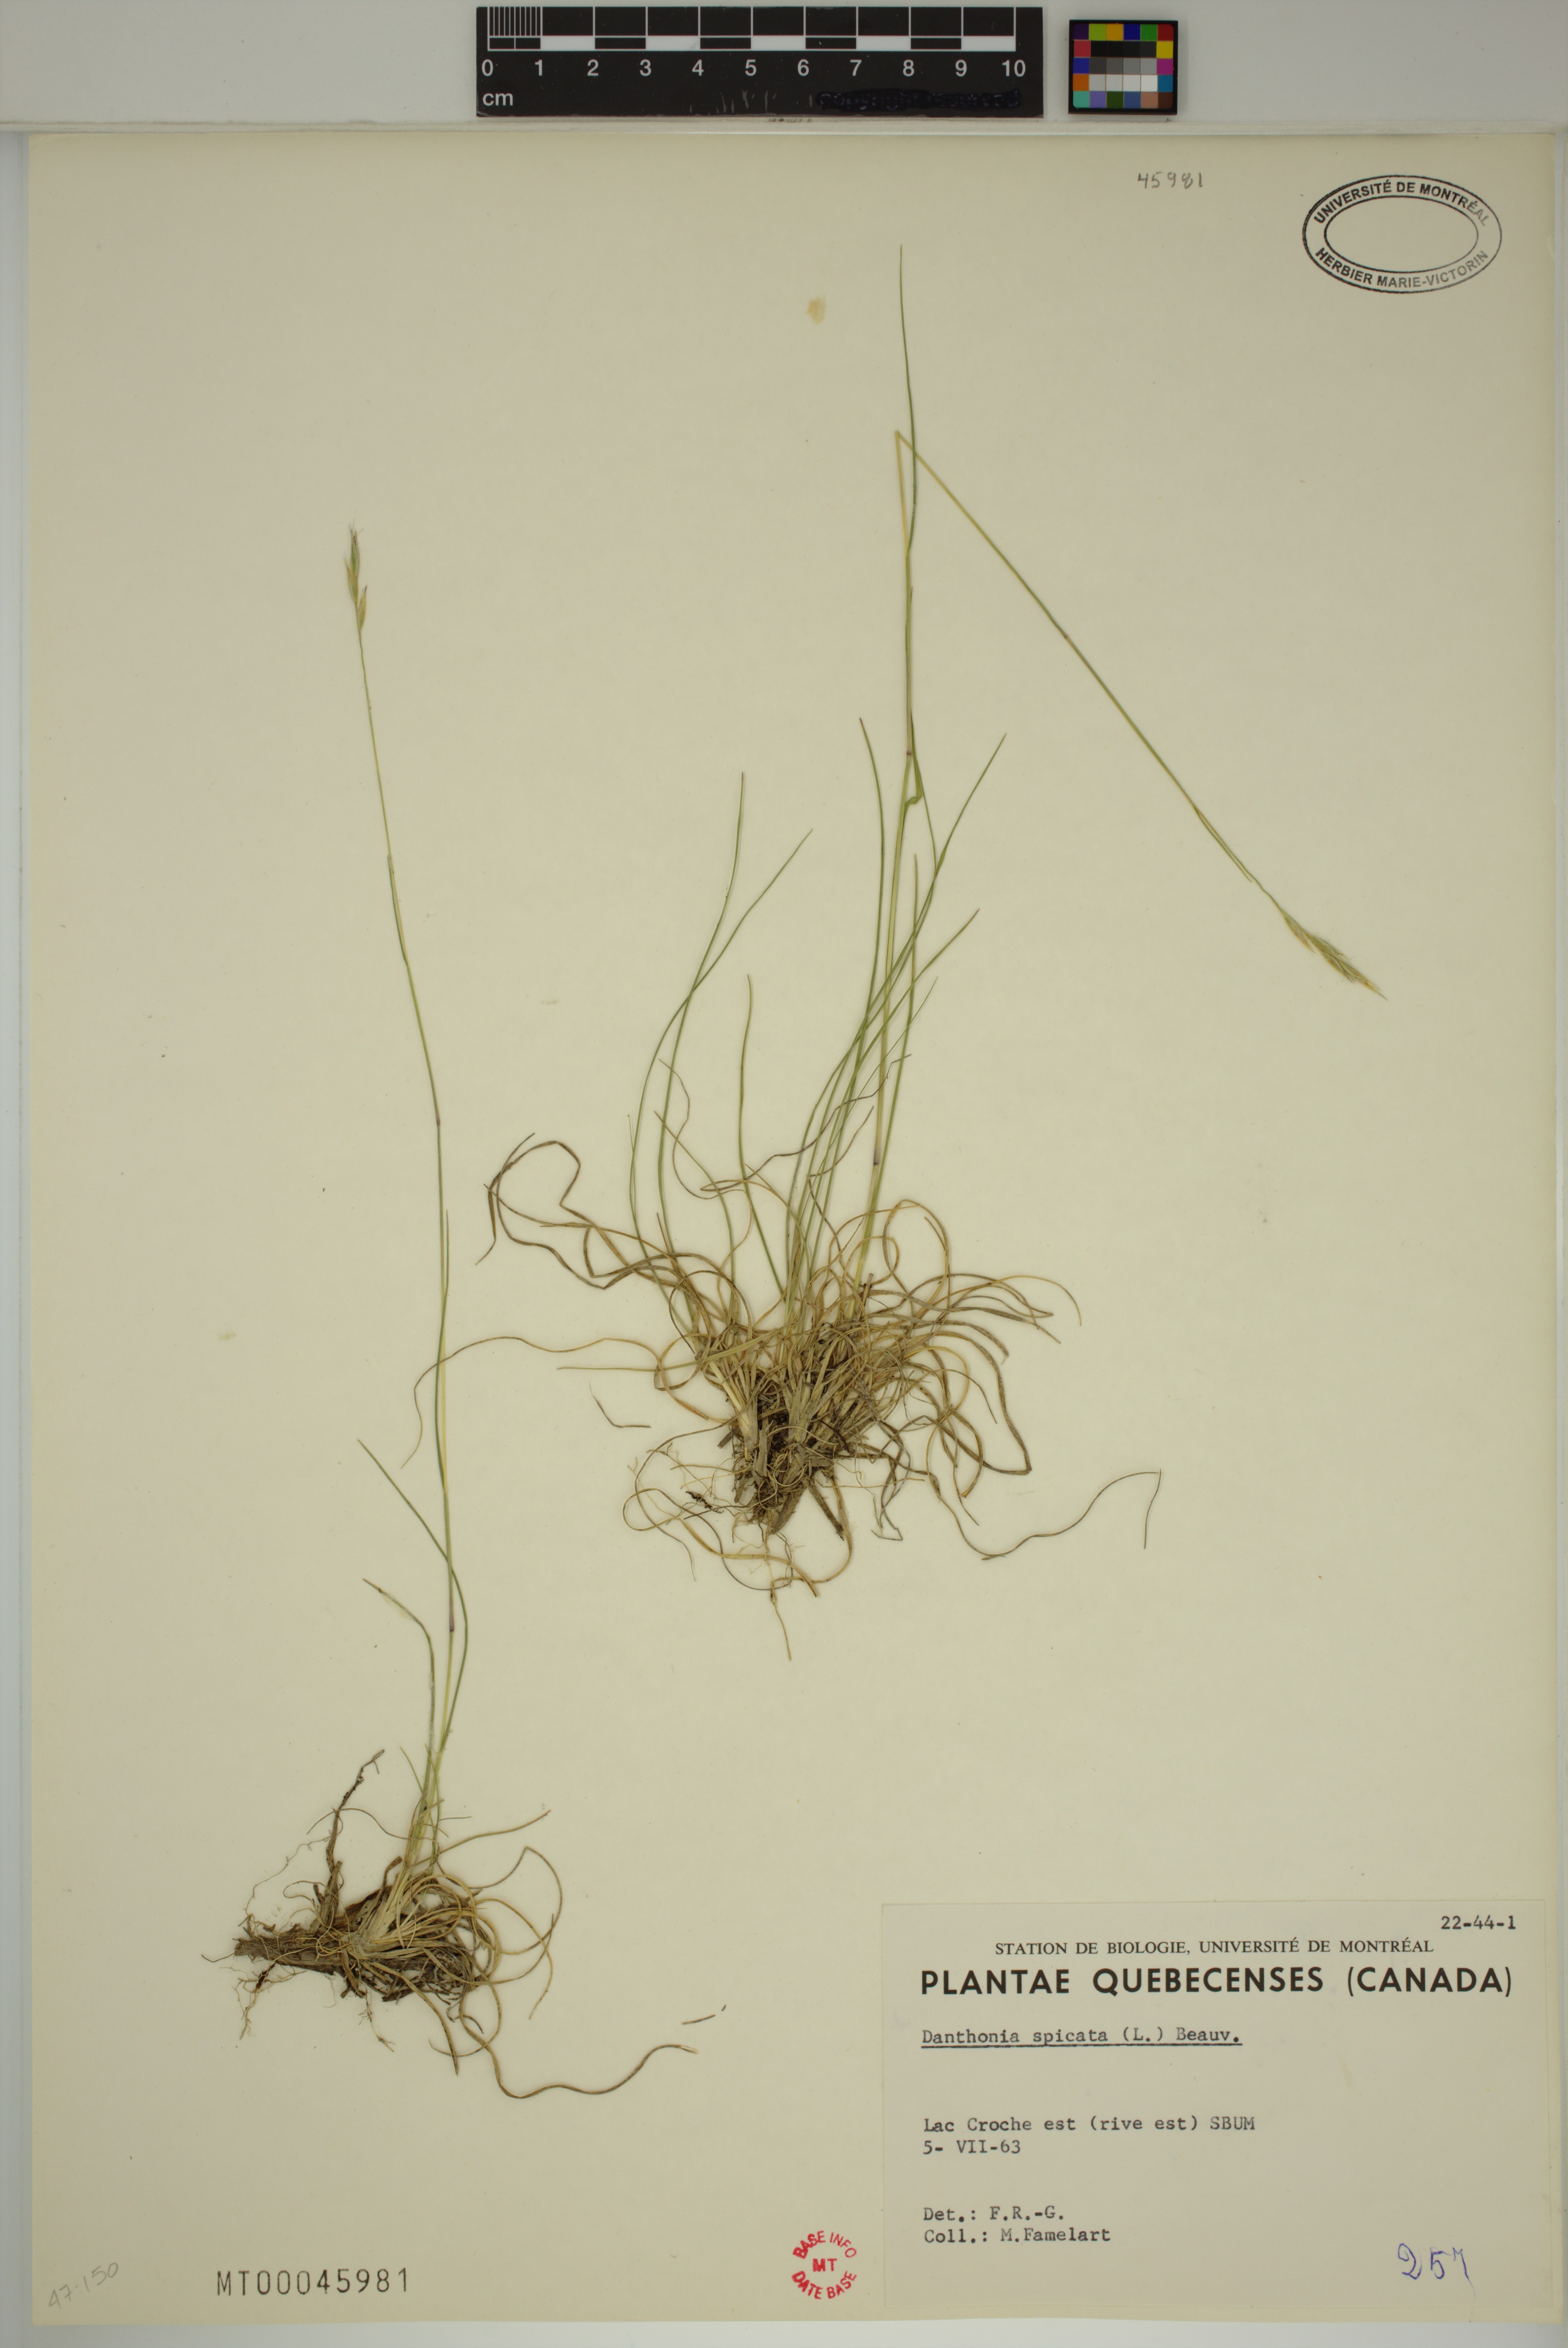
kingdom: Plantae
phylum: Tracheophyta
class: Liliopsida
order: Poales
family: Poaceae
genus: Danthonia
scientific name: Danthonia spicata
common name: Common wild oatgrass
